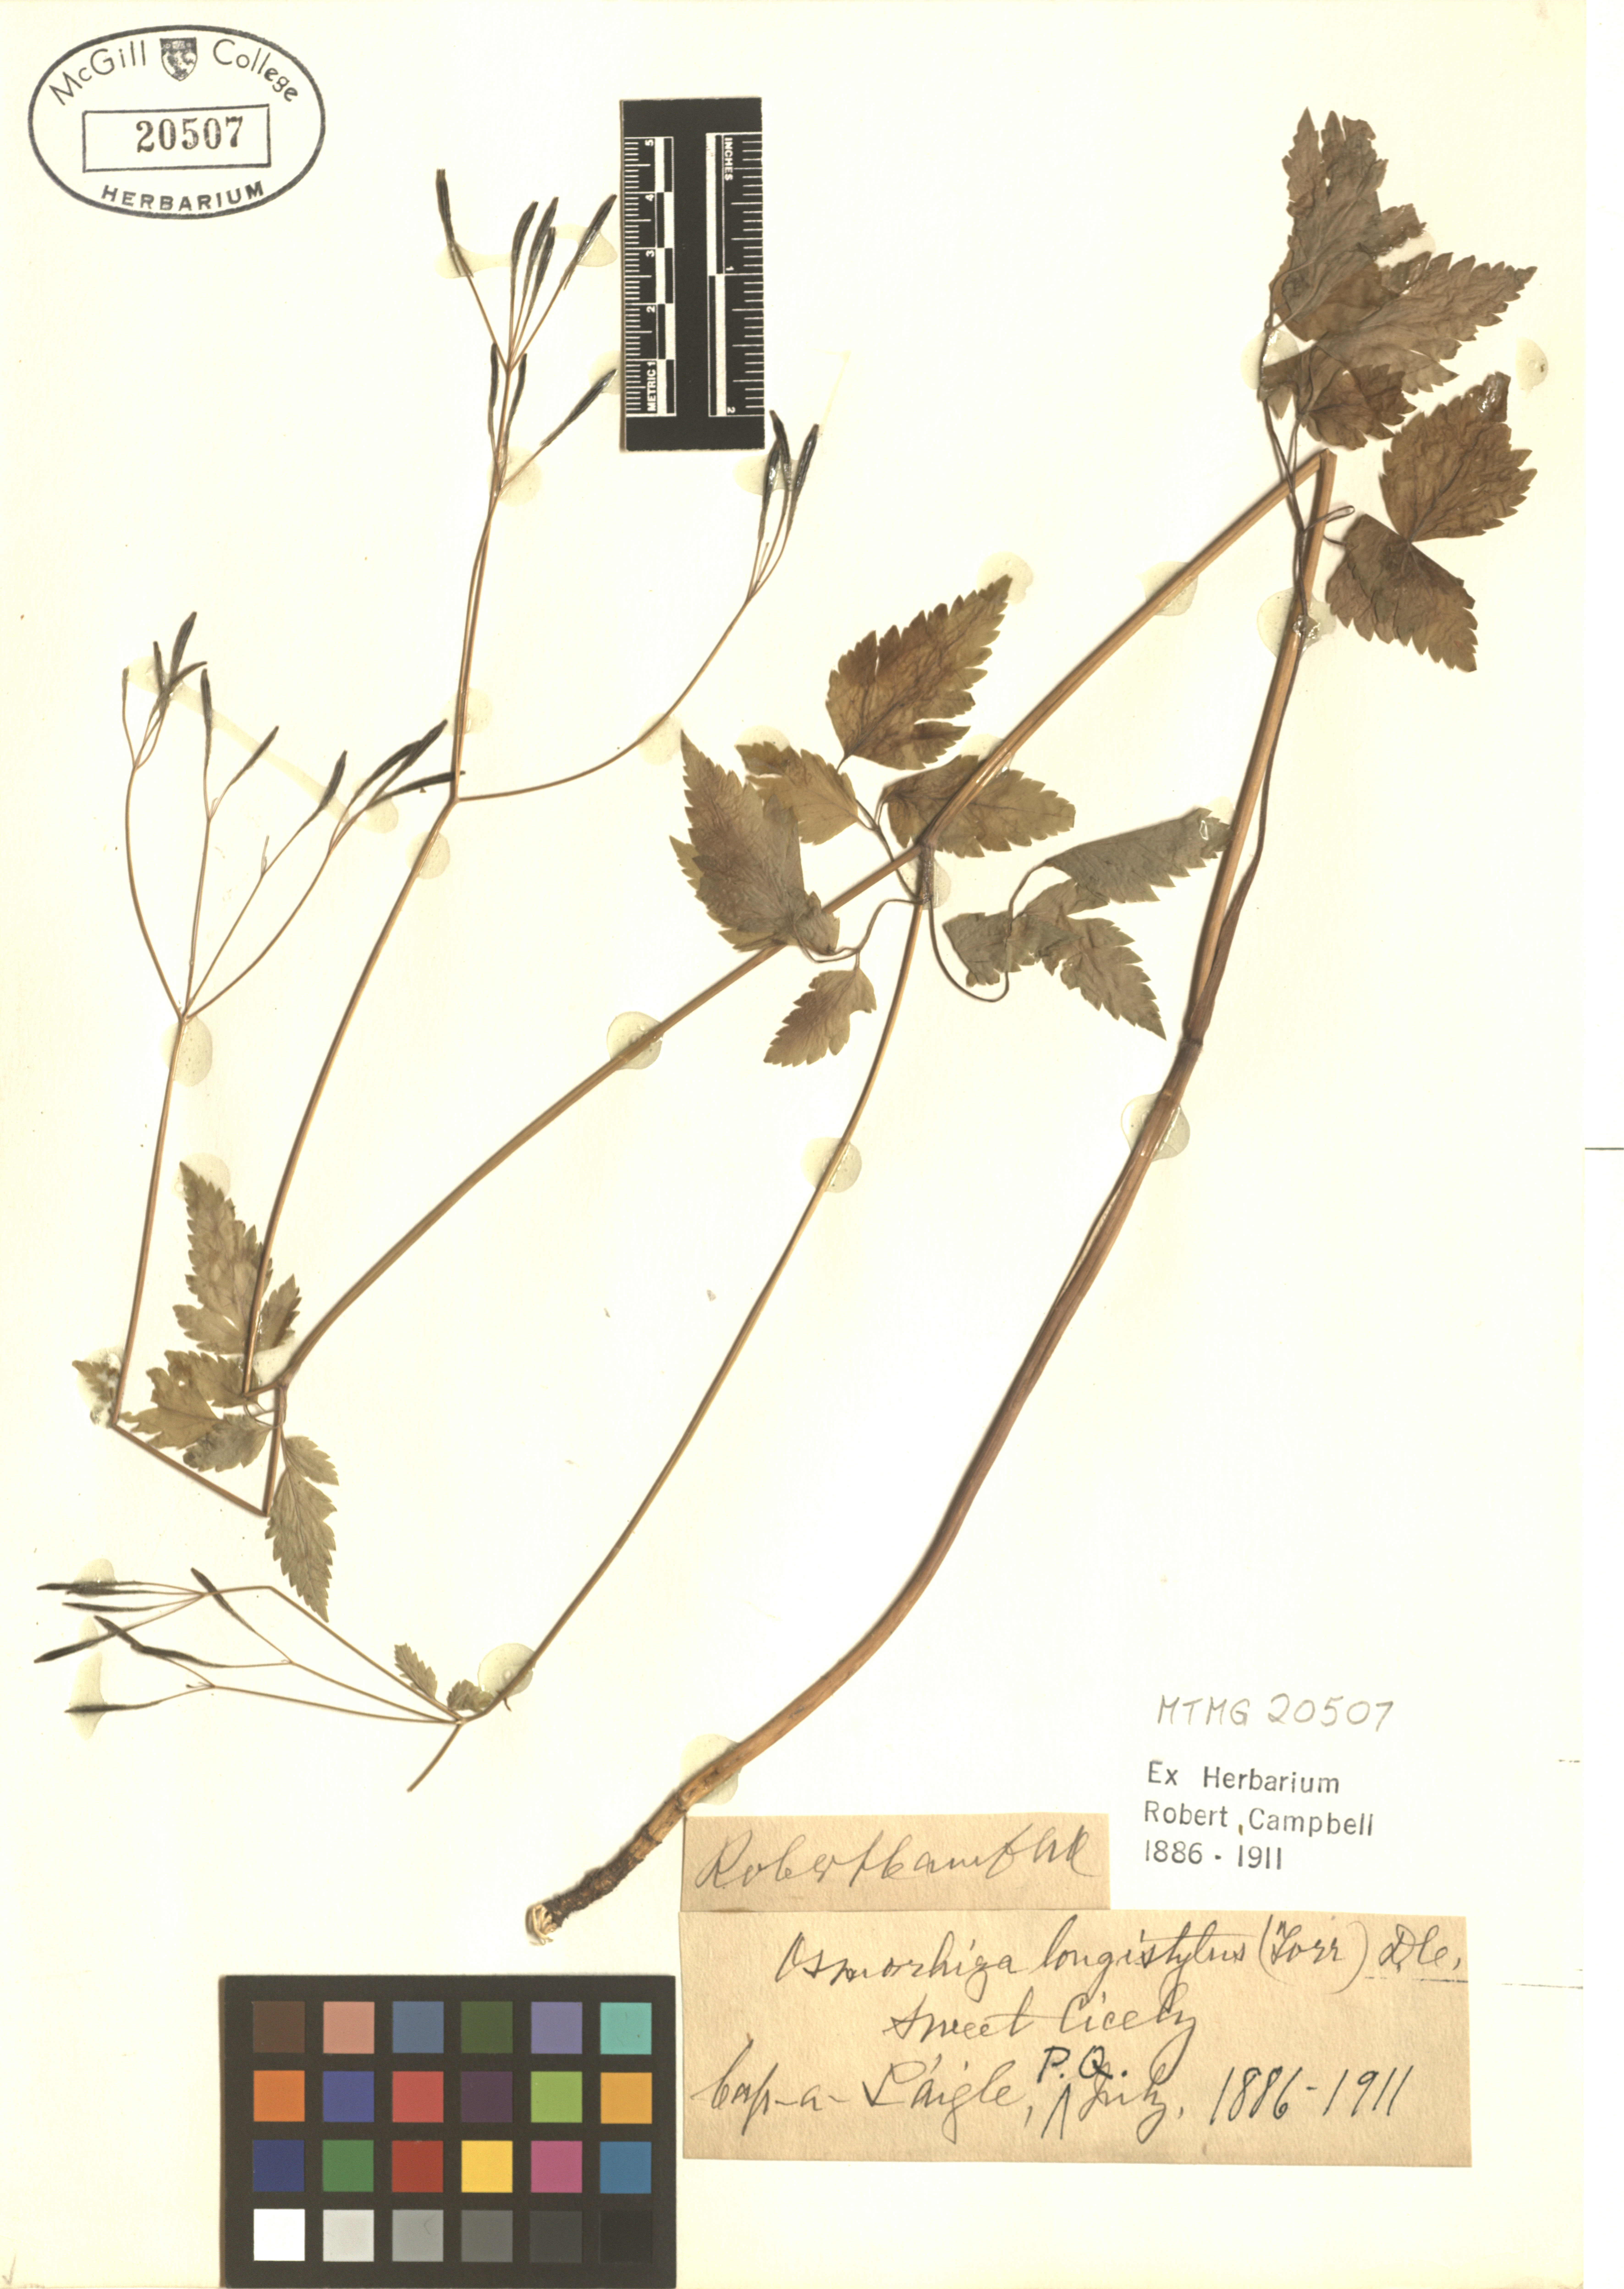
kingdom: Plantae
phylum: Tracheophyta
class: Magnoliopsida
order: Apiales
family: Apiaceae
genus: Osmorhiza
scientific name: Osmorhiza longistylis
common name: Smooth sweet cicely
